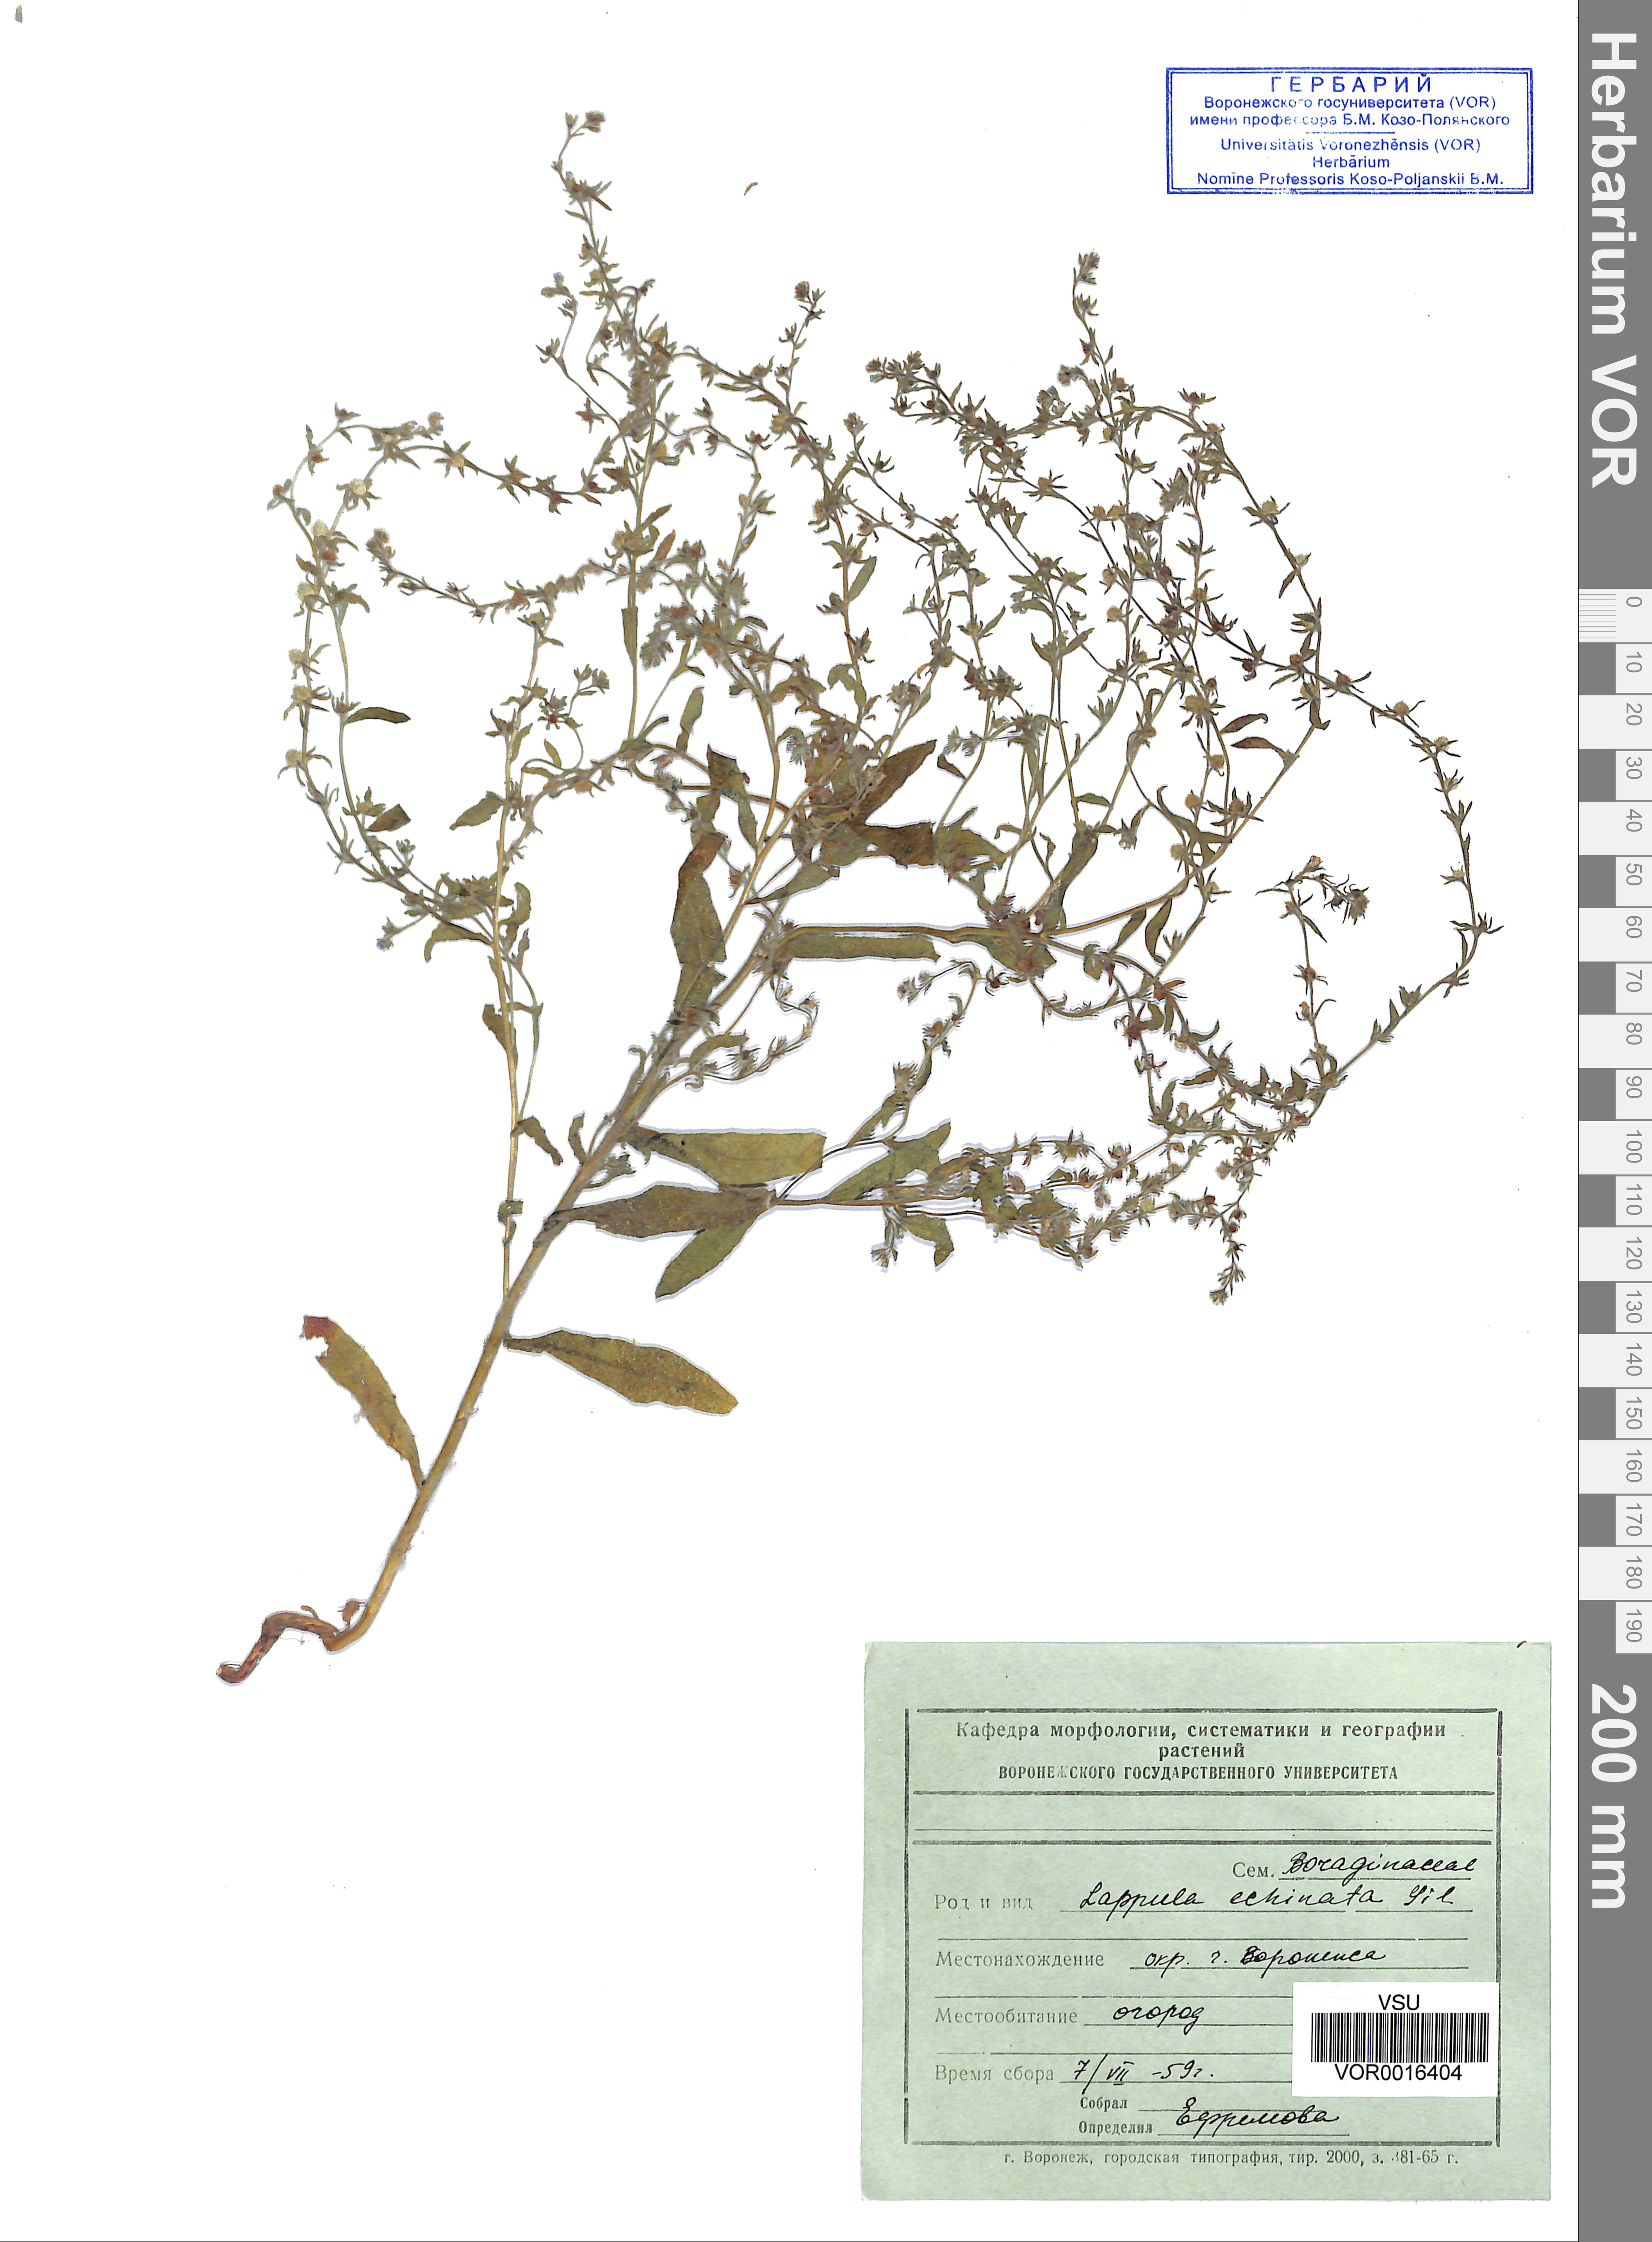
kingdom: Plantae
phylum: Tracheophyta
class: Magnoliopsida
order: Boraginales
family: Boraginaceae
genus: Lappula
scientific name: Lappula squarrosa
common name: European stickseed
